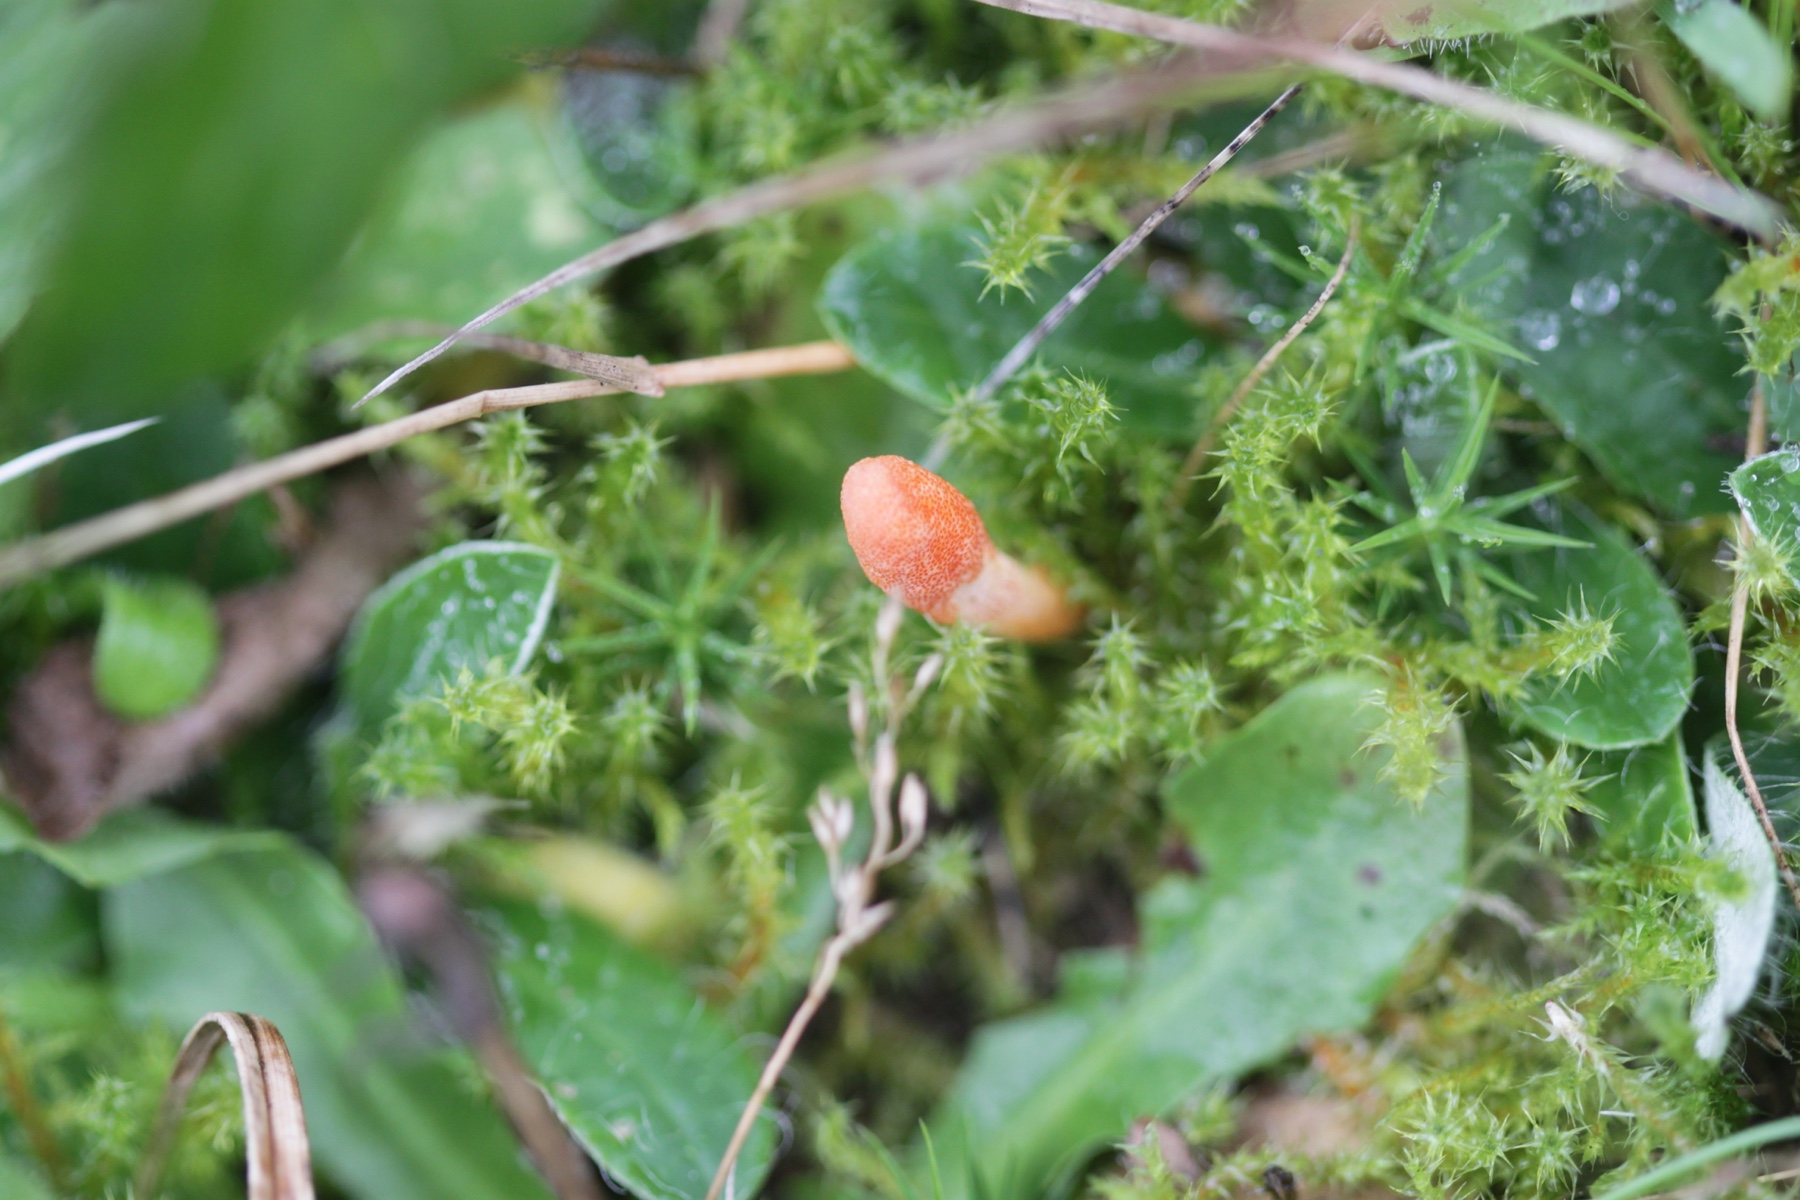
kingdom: Fungi
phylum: Ascomycota
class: Sordariomycetes
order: Hypocreales
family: Cordycipitaceae
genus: Cordyceps
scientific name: Cordyceps militaris
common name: puppe-snyltekølle
